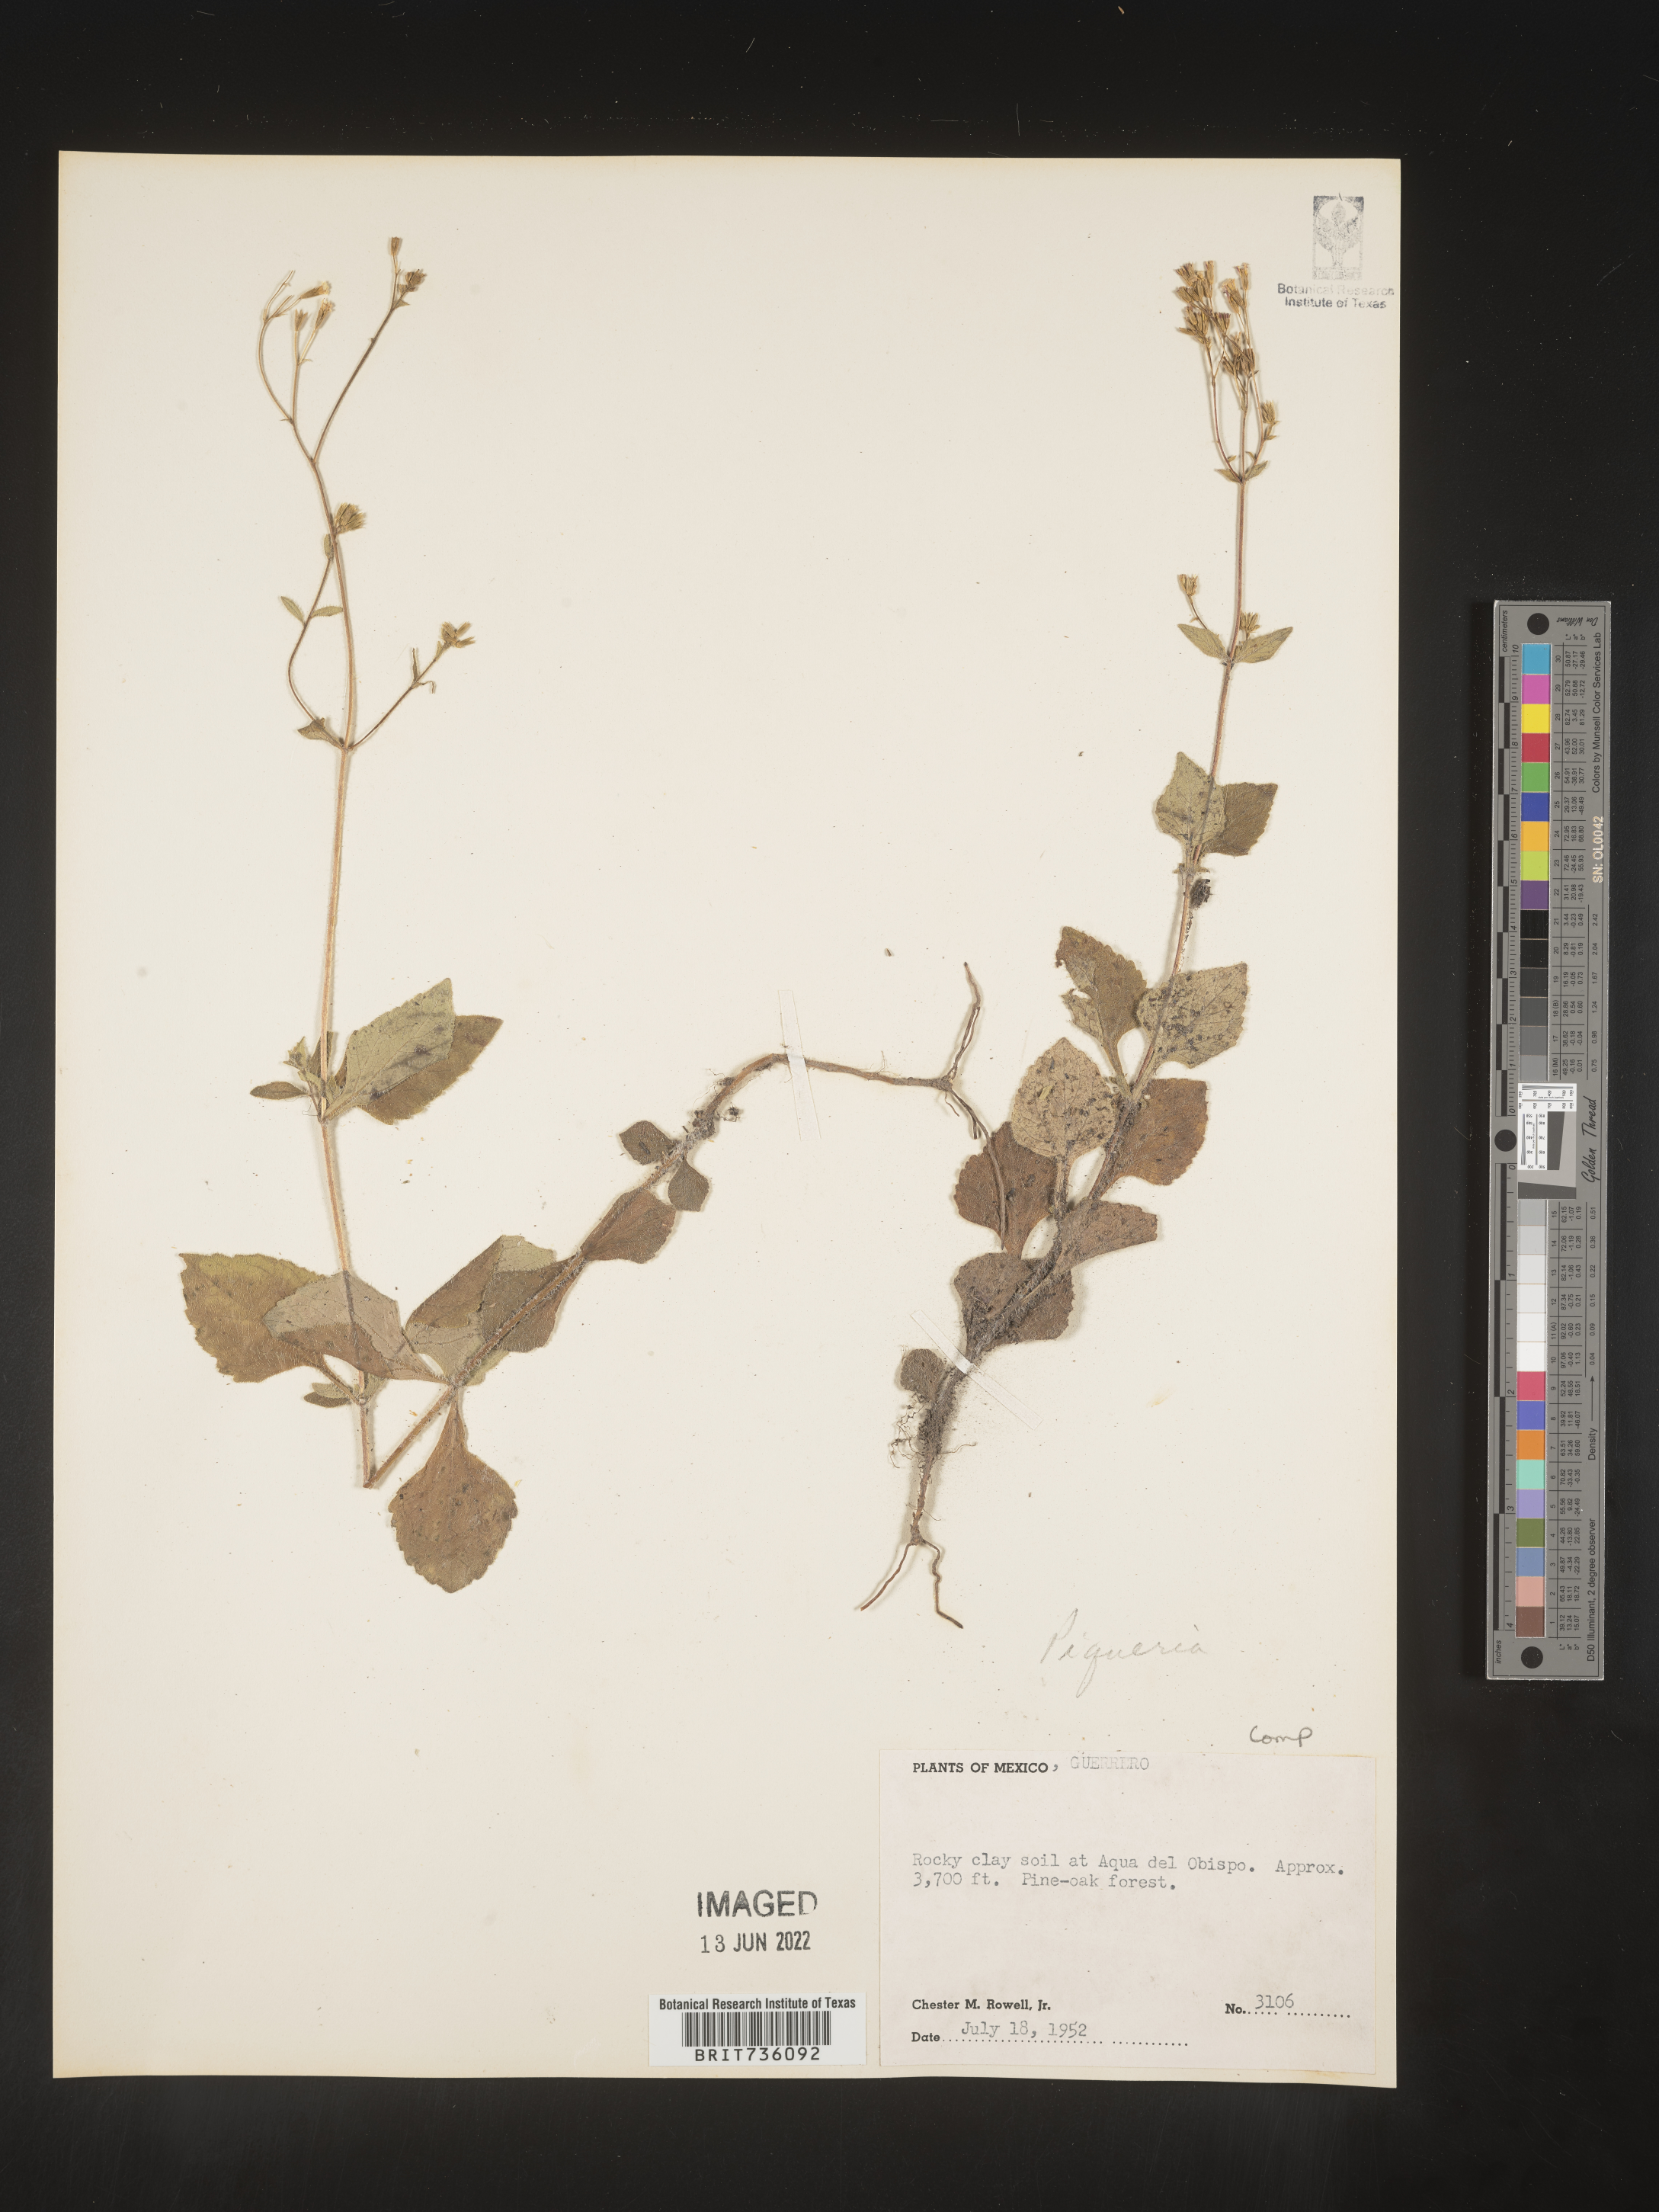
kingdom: Plantae
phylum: Tracheophyta
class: Magnoliopsida
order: Asterales
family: Asteraceae
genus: Piqueria
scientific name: Piqueria
